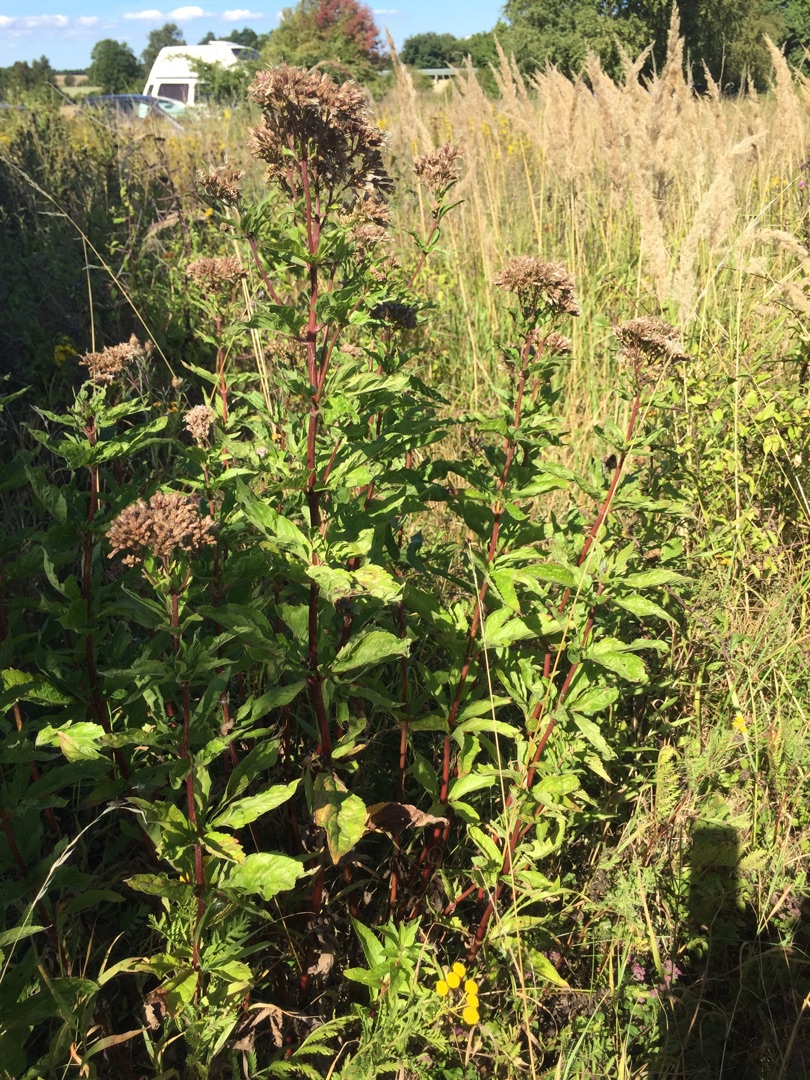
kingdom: Plantae
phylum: Tracheophyta
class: Magnoliopsida
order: Asterales
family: Asteraceae
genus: Eupatorium
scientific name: Eupatorium cannabinum
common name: Hjortetrøst
